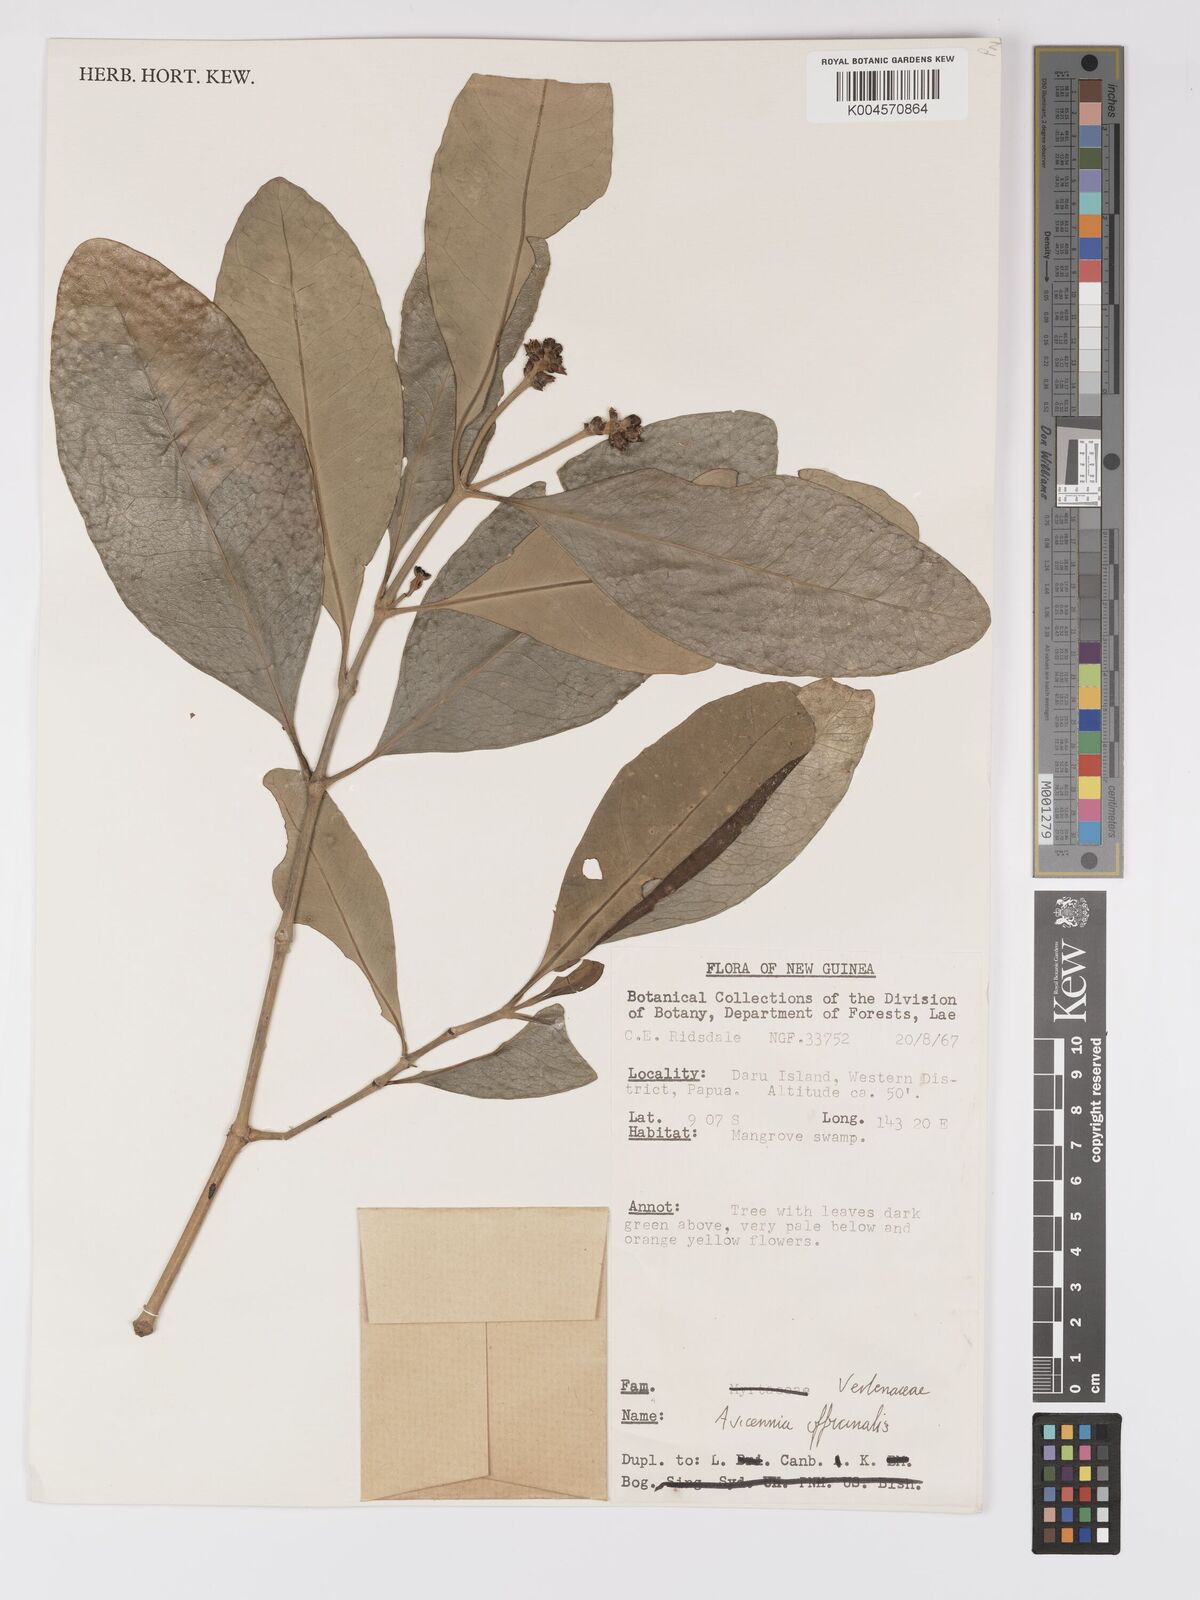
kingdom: Plantae
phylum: Tracheophyta
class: Magnoliopsida
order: Lamiales
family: Acanthaceae
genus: Avicennia
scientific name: Avicennia officinalis
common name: Baen
